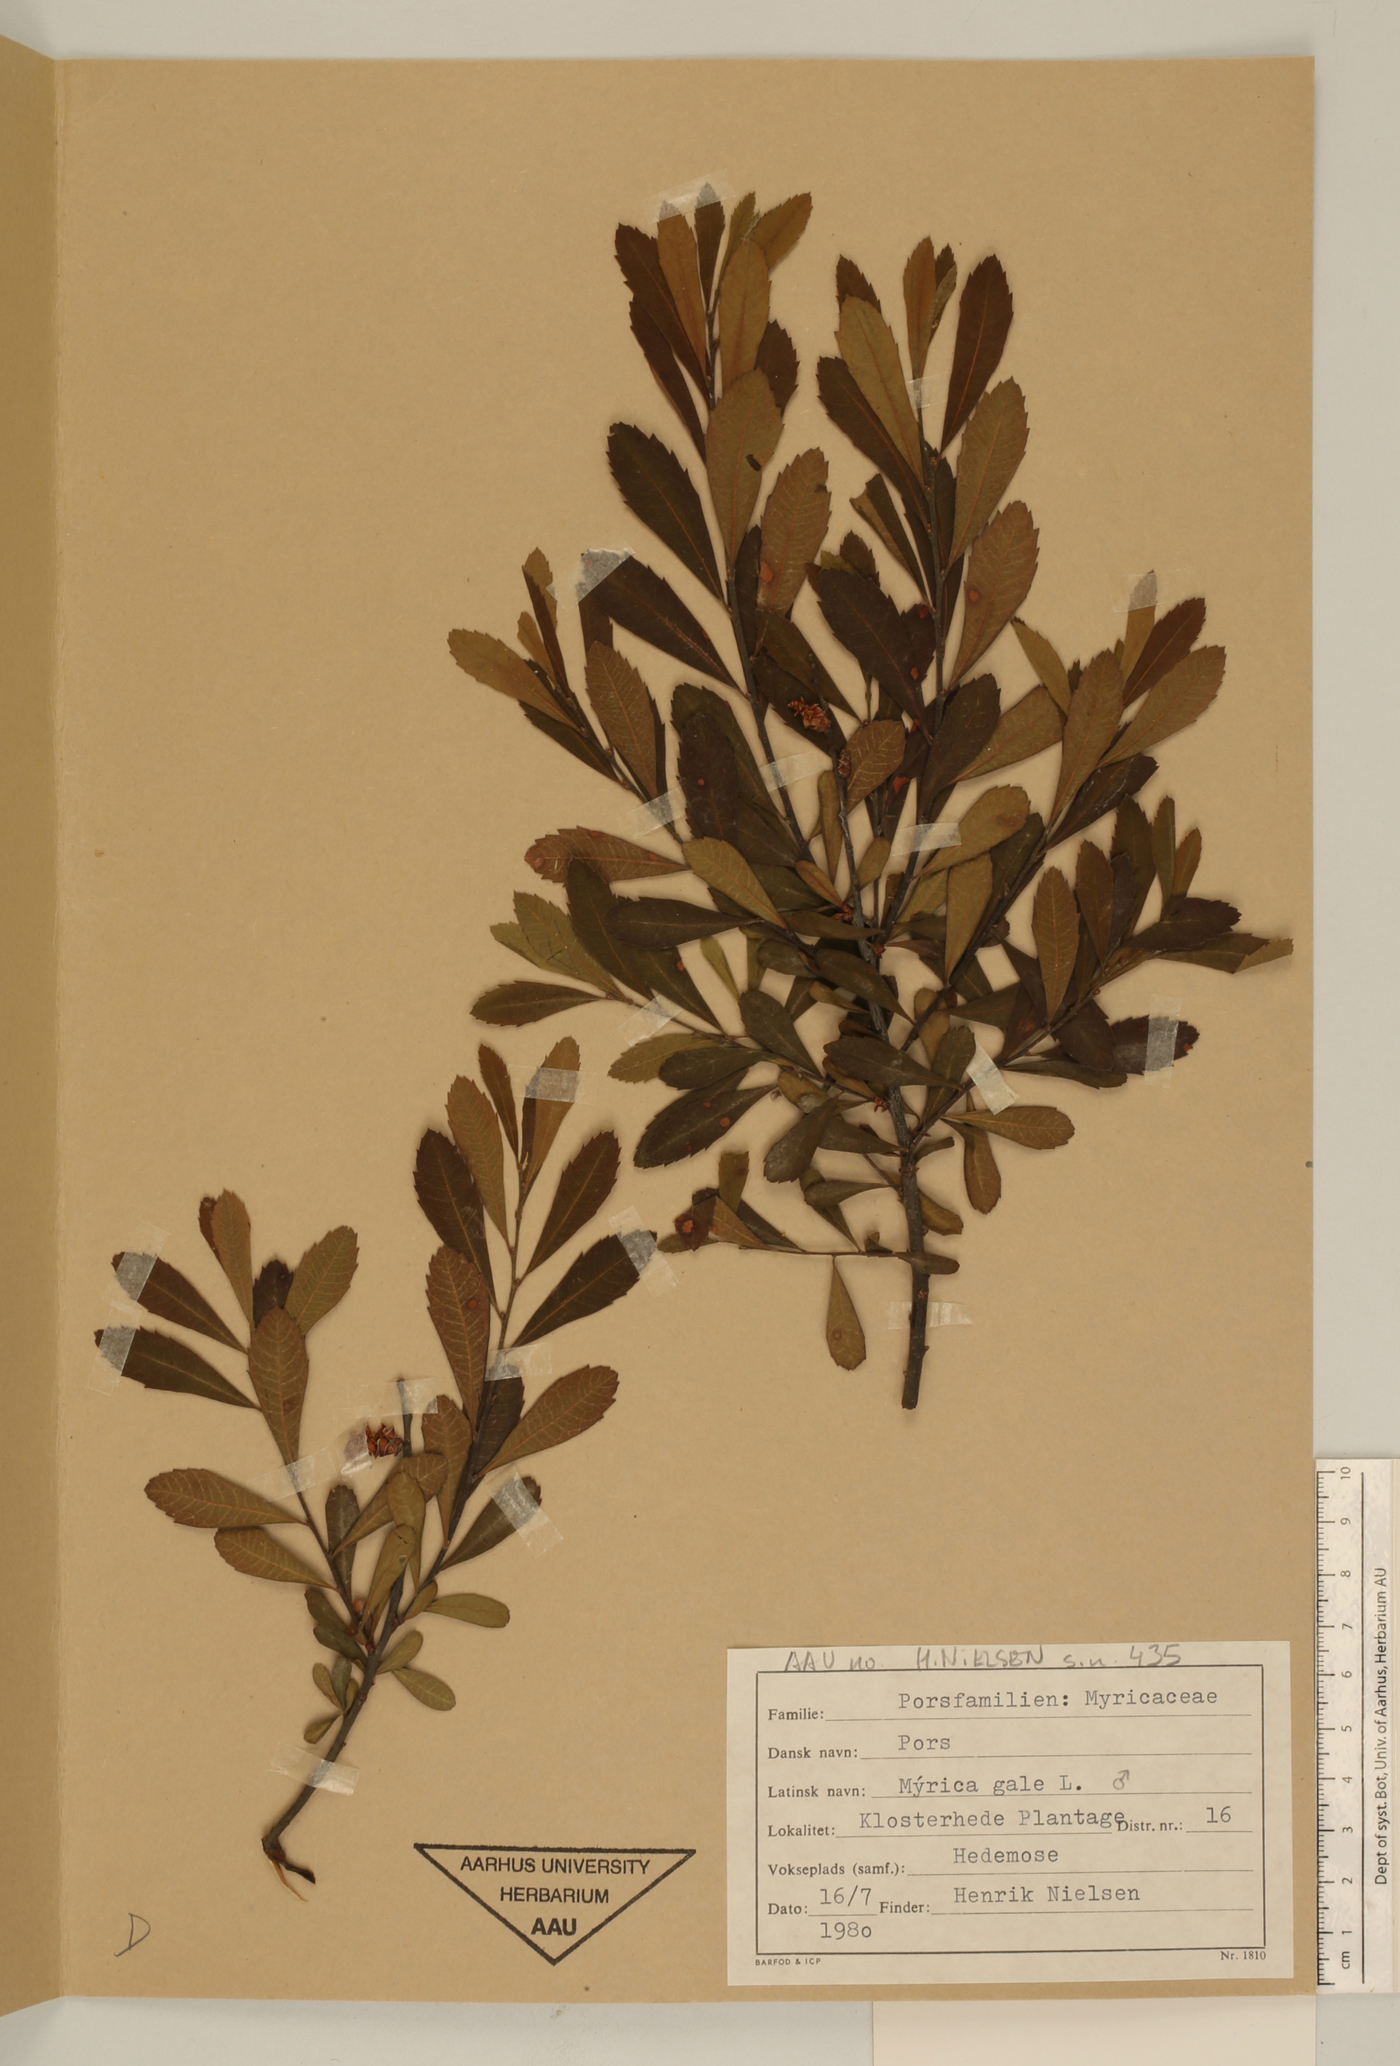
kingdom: Plantae
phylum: Tracheophyta
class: Magnoliopsida
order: Fagales
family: Myricaceae
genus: Myrica
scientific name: Myrica gale
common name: Sweet gale
